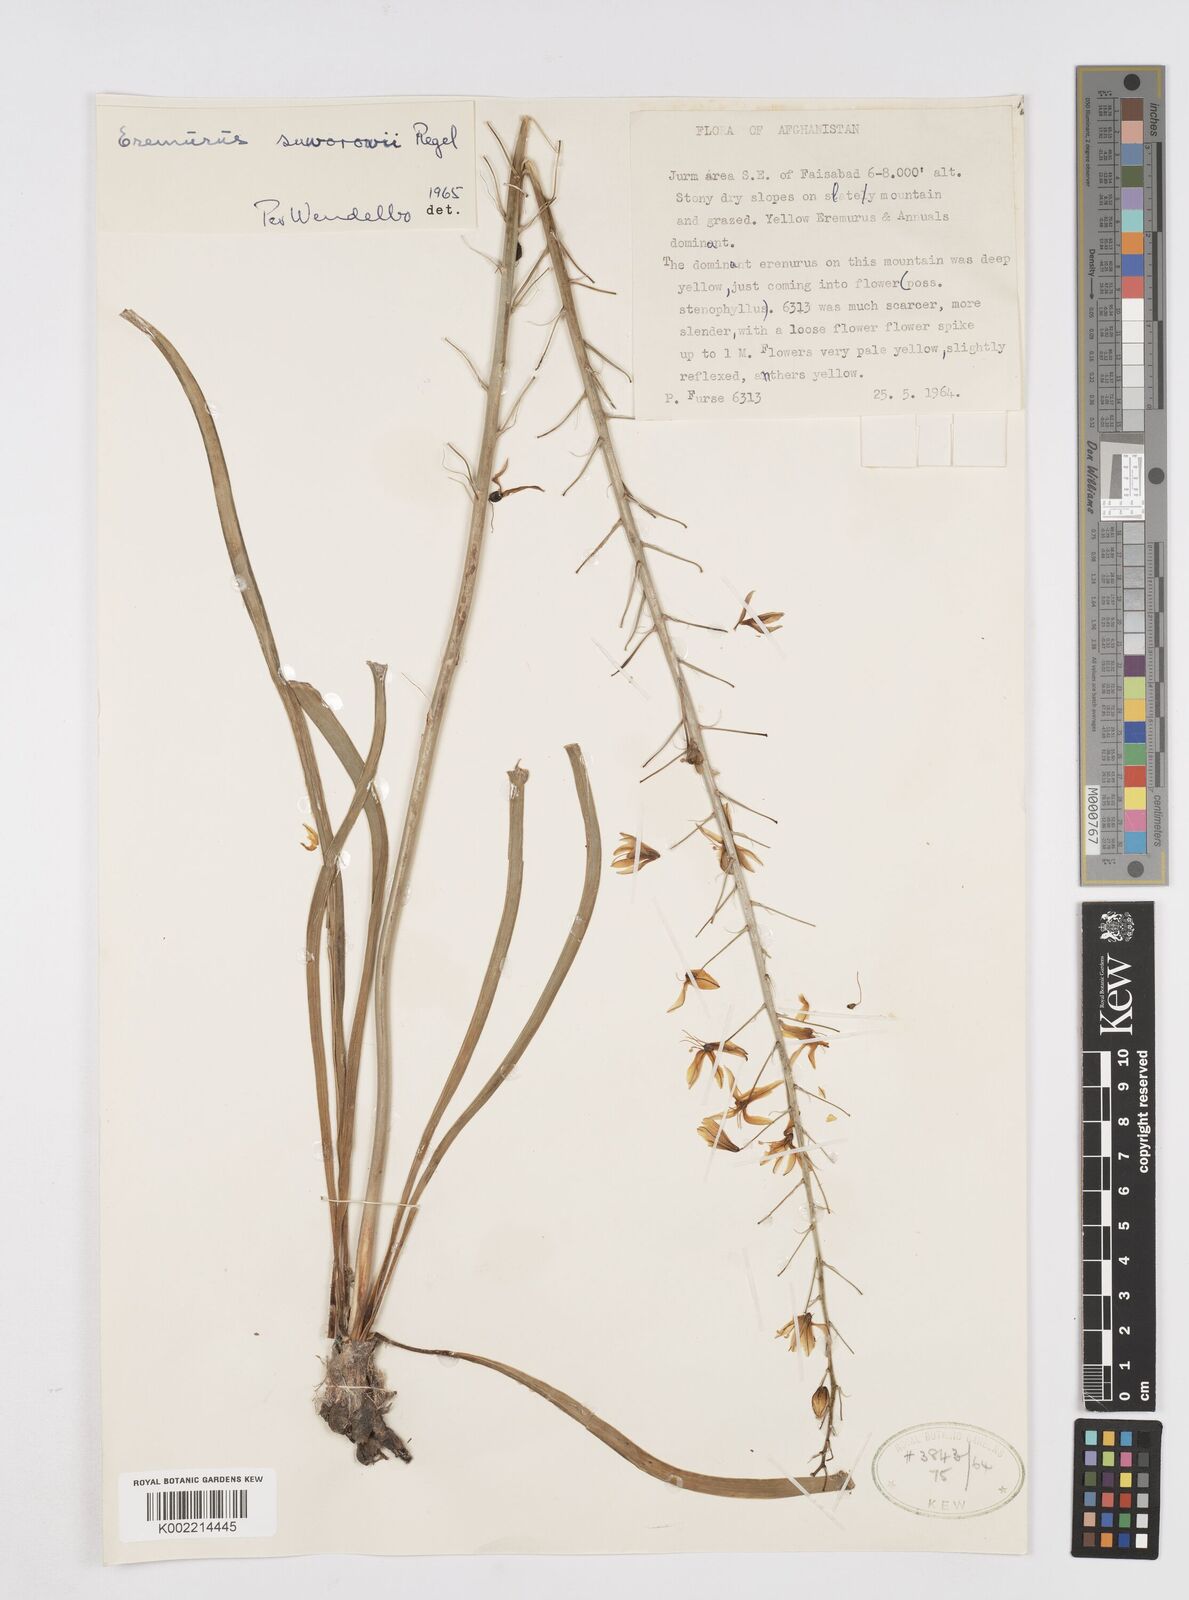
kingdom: Plantae
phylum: Tracheophyta
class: Liliopsida
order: Asparagales
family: Asphodelaceae
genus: Eremurus
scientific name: Eremurus suworowii
